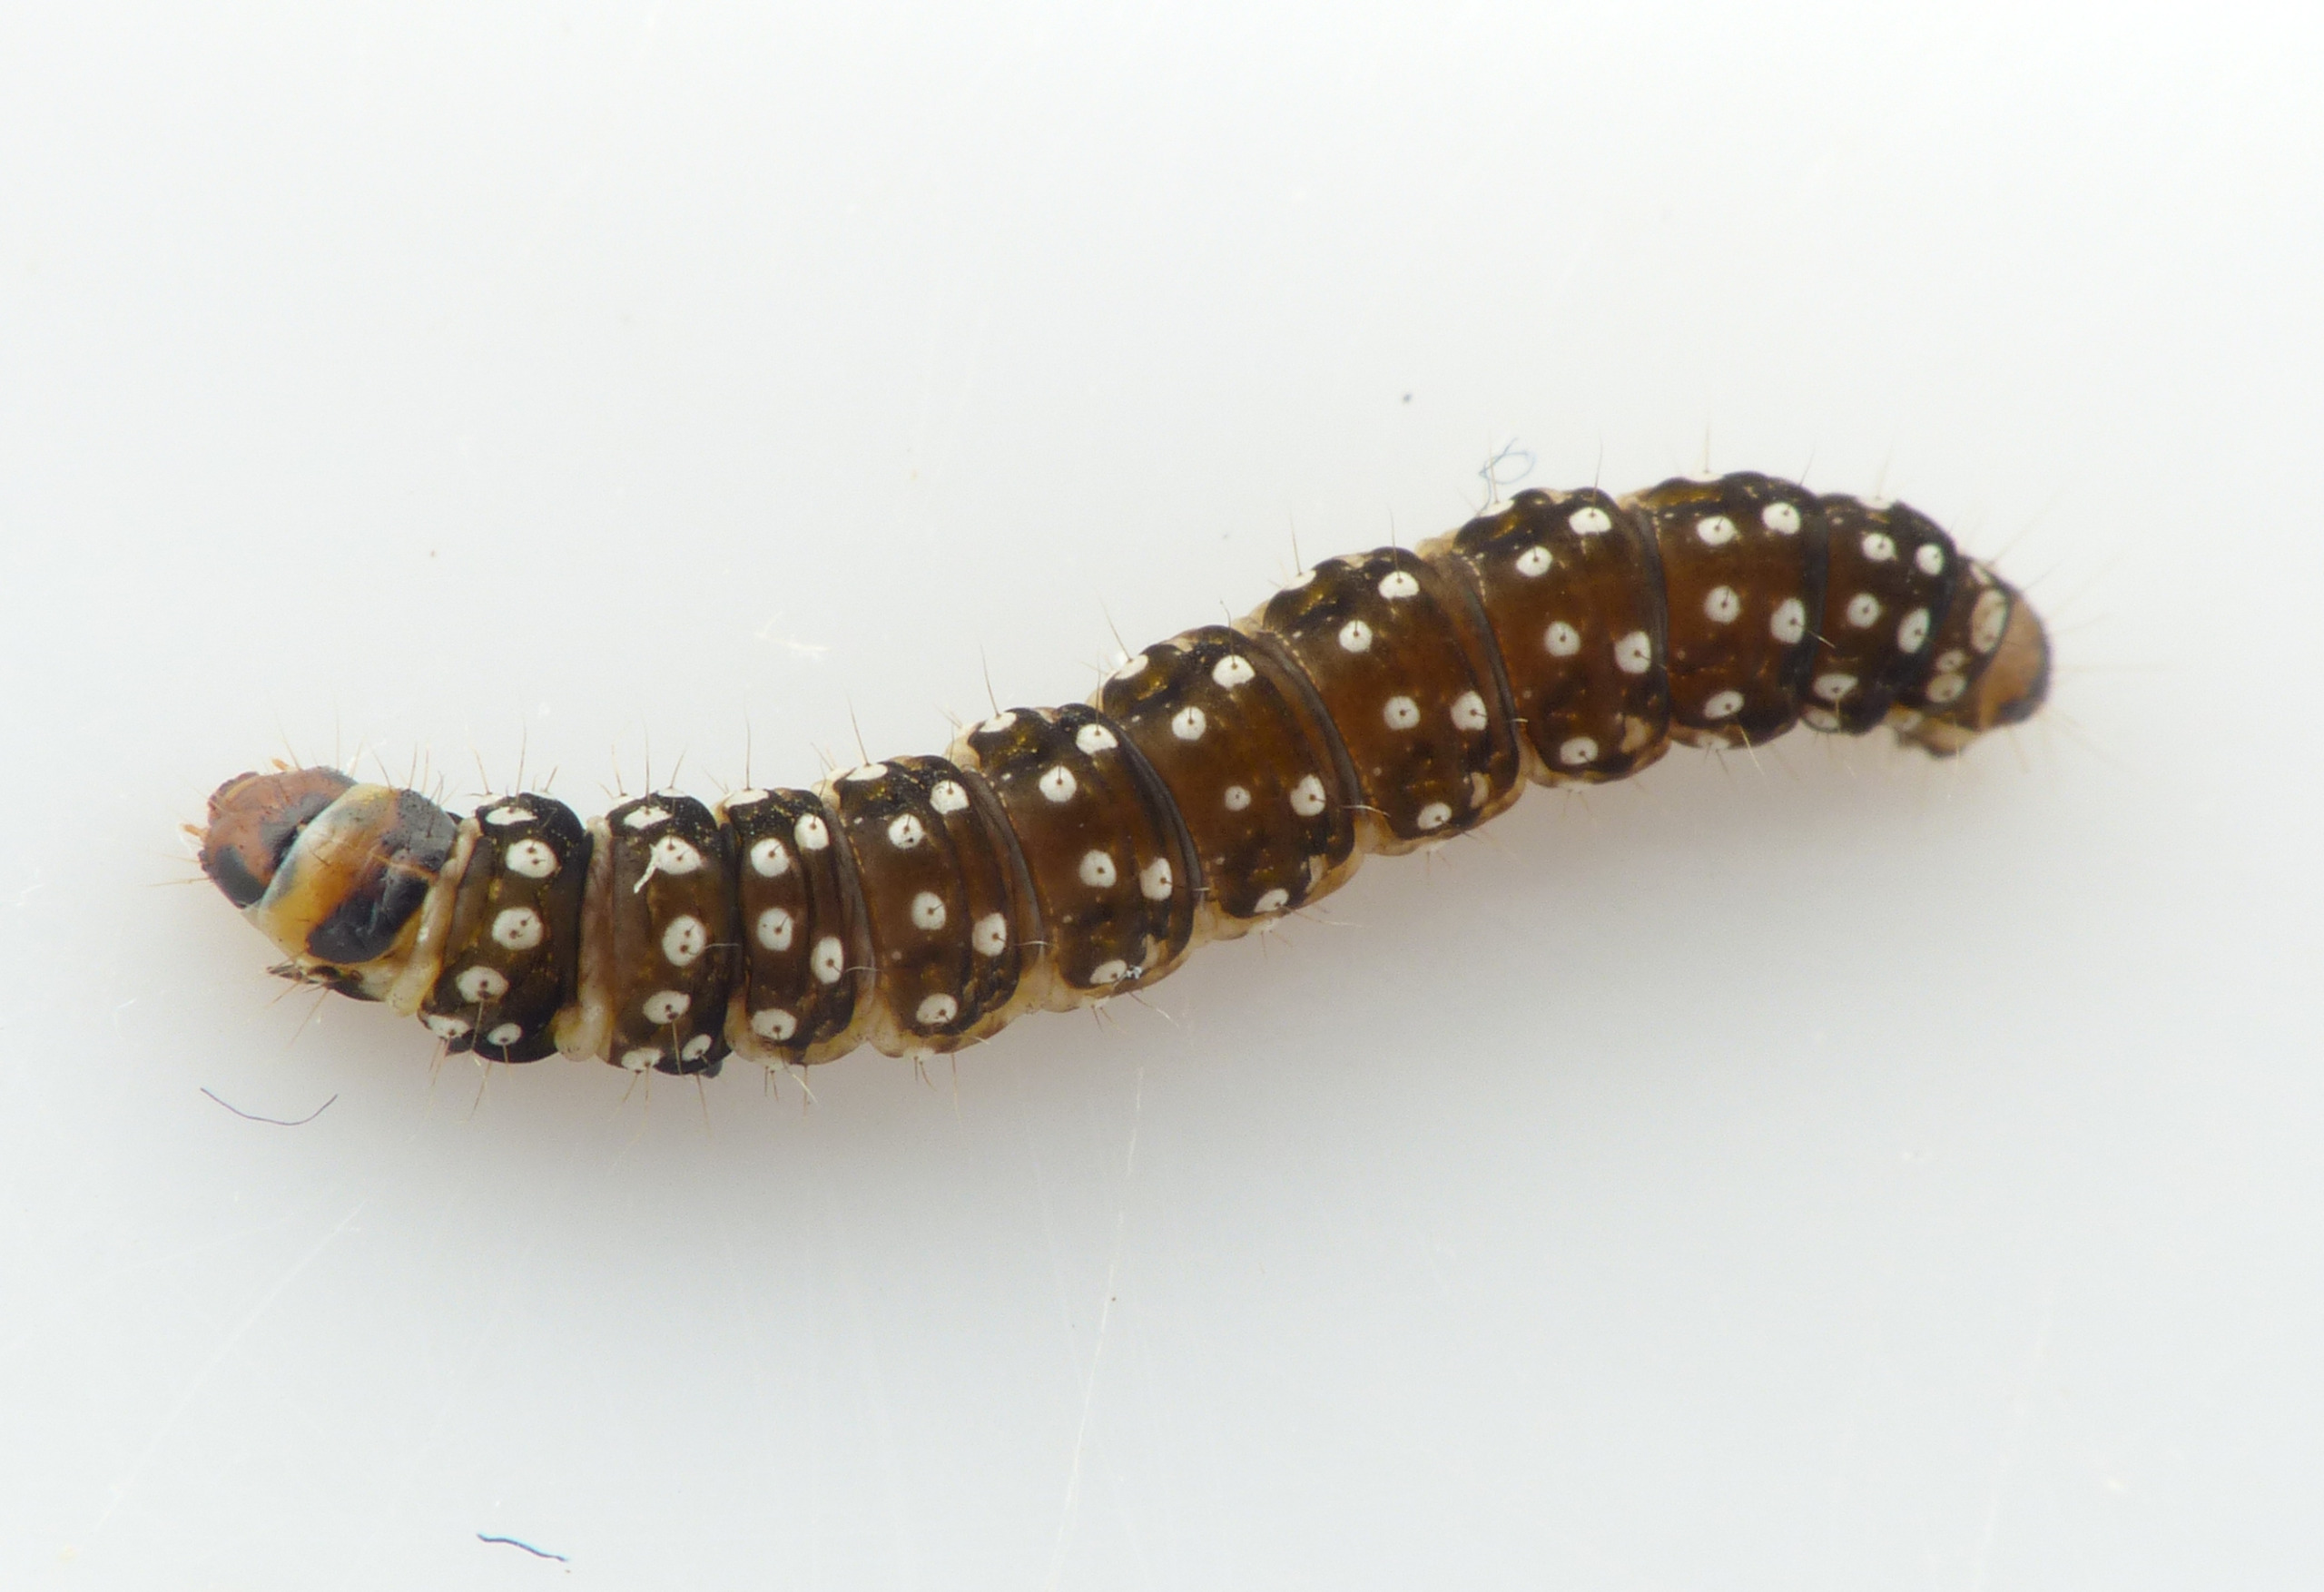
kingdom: Animalia
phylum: Arthropoda
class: Insecta
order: Lepidoptera
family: Tortricidae
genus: Aphelia
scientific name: Aphelia Zelotherses paleana
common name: Timothevikler
